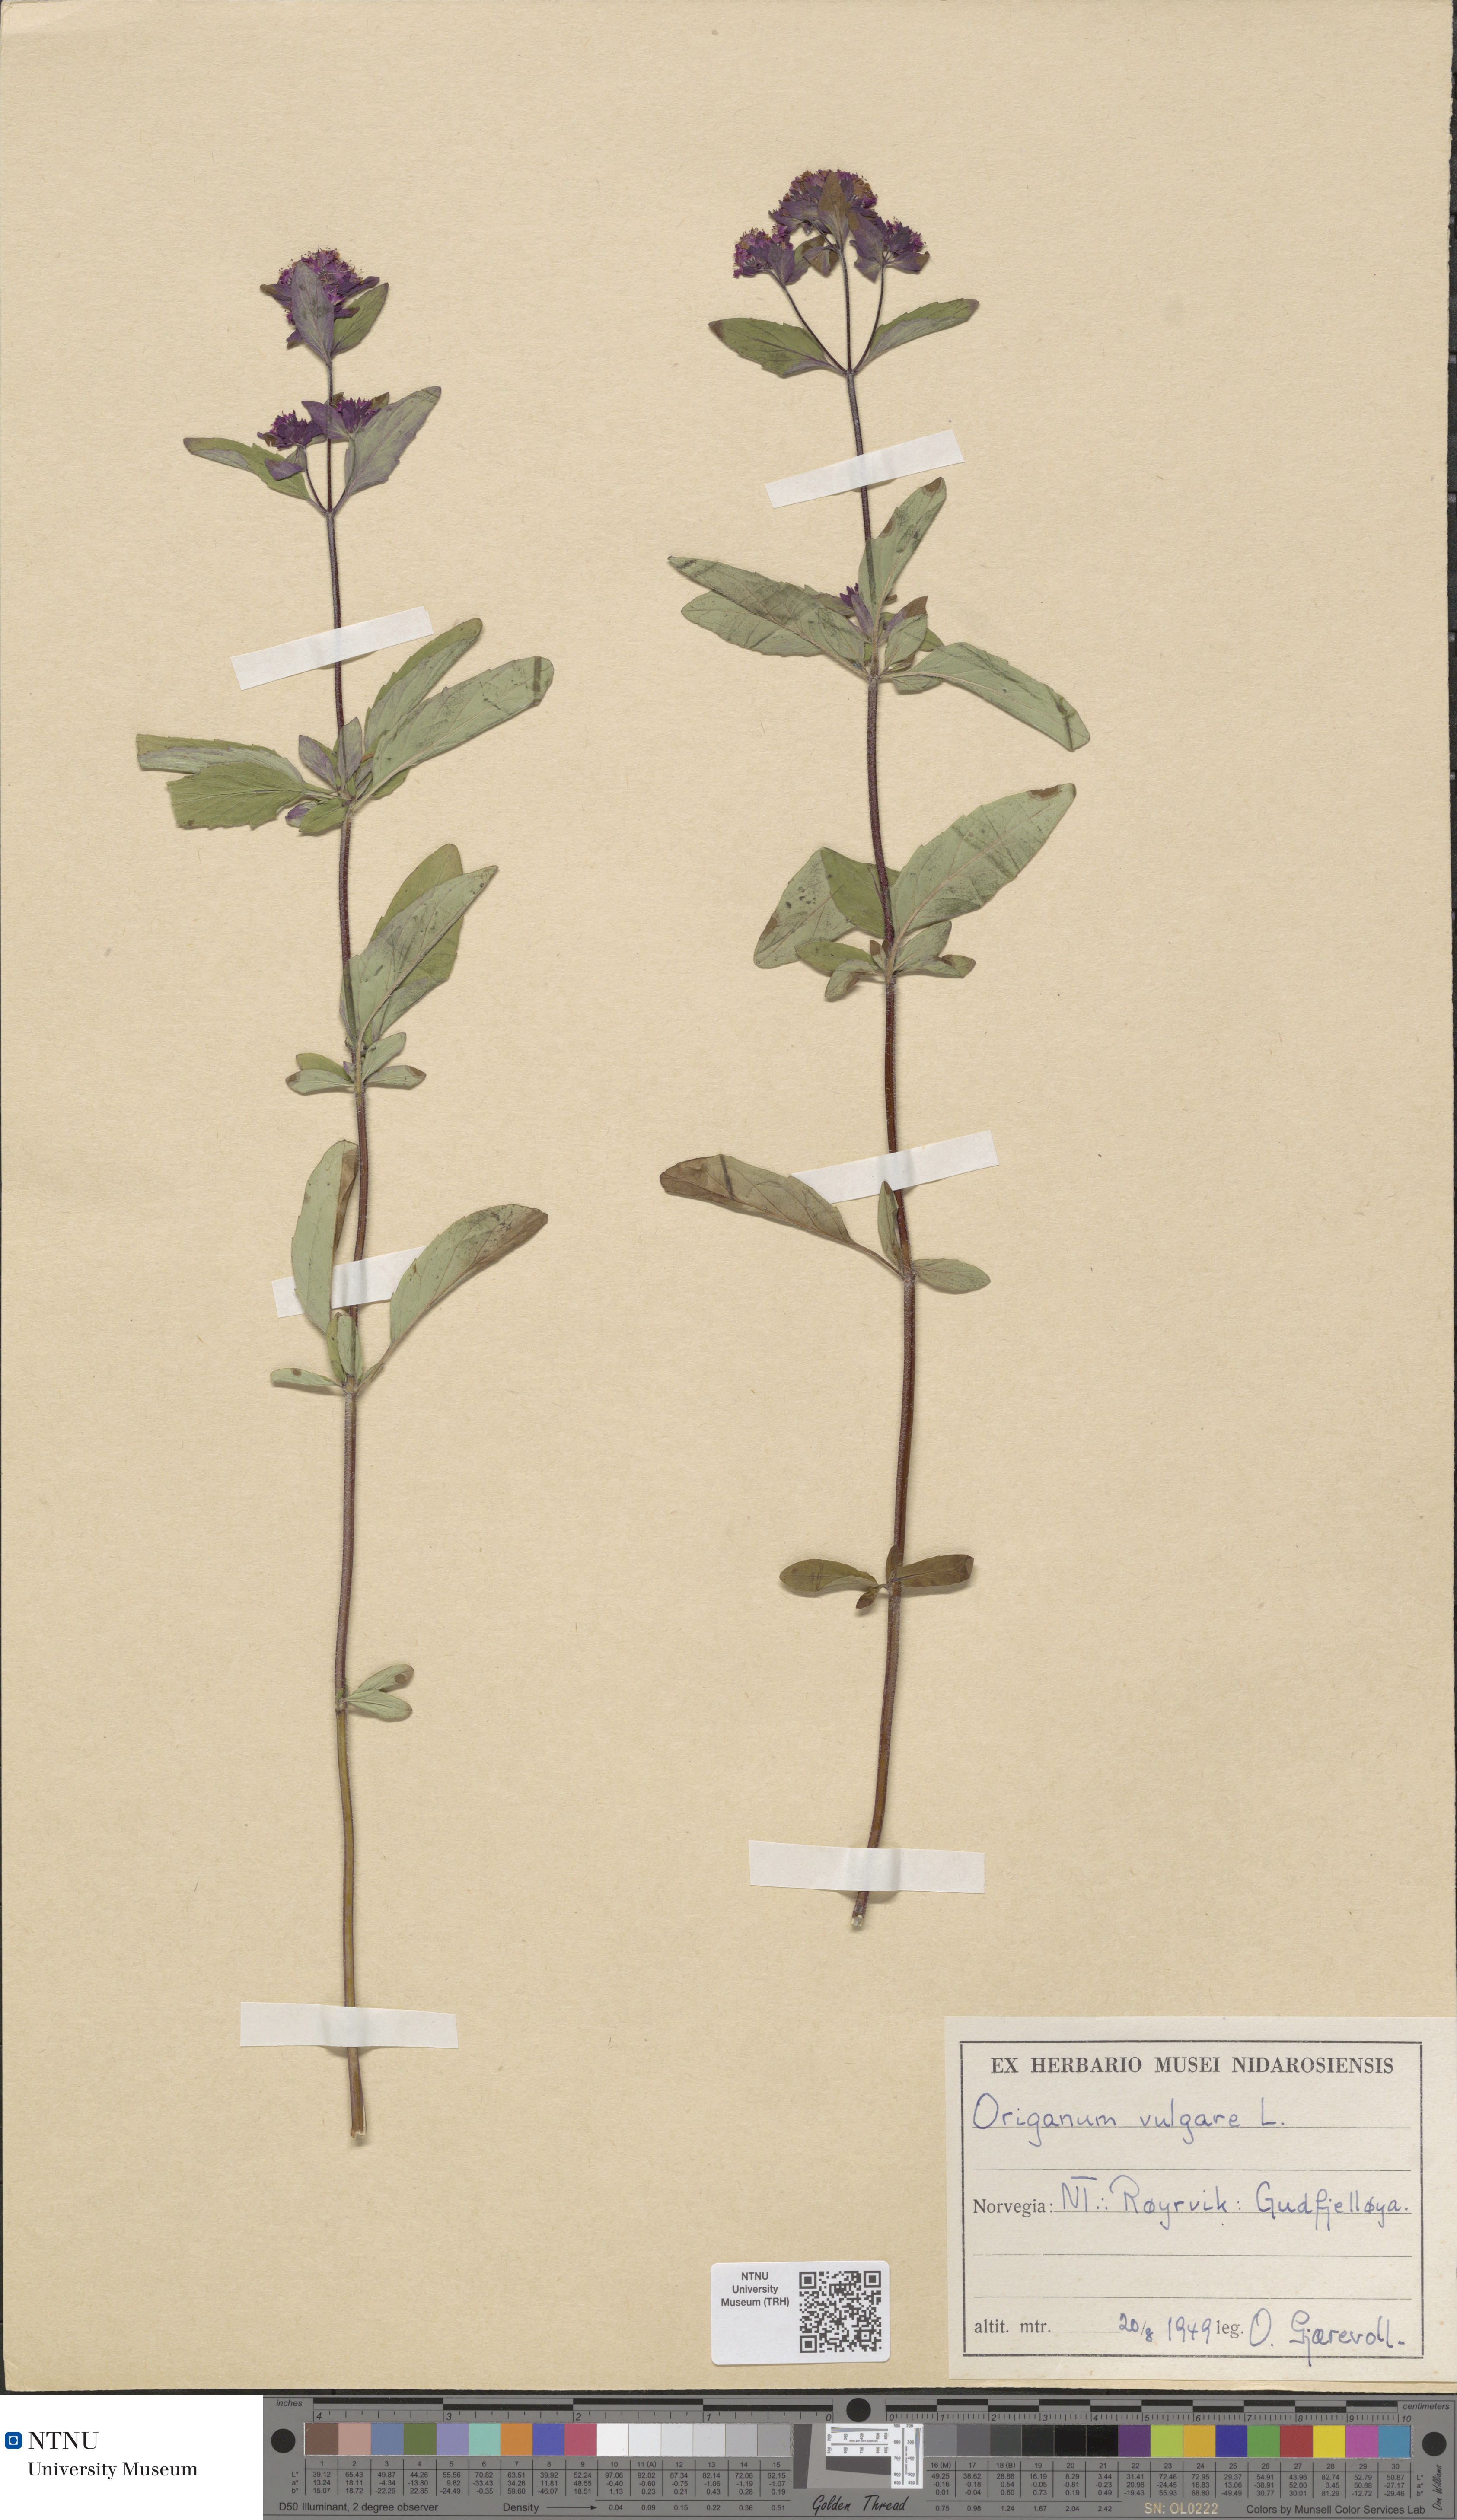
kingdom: Plantae
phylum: Tracheophyta
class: Magnoliopsida
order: Lamiales
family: Lamiaceae
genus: Origanum
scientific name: Origanum vulgare
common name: Wild marjoram
